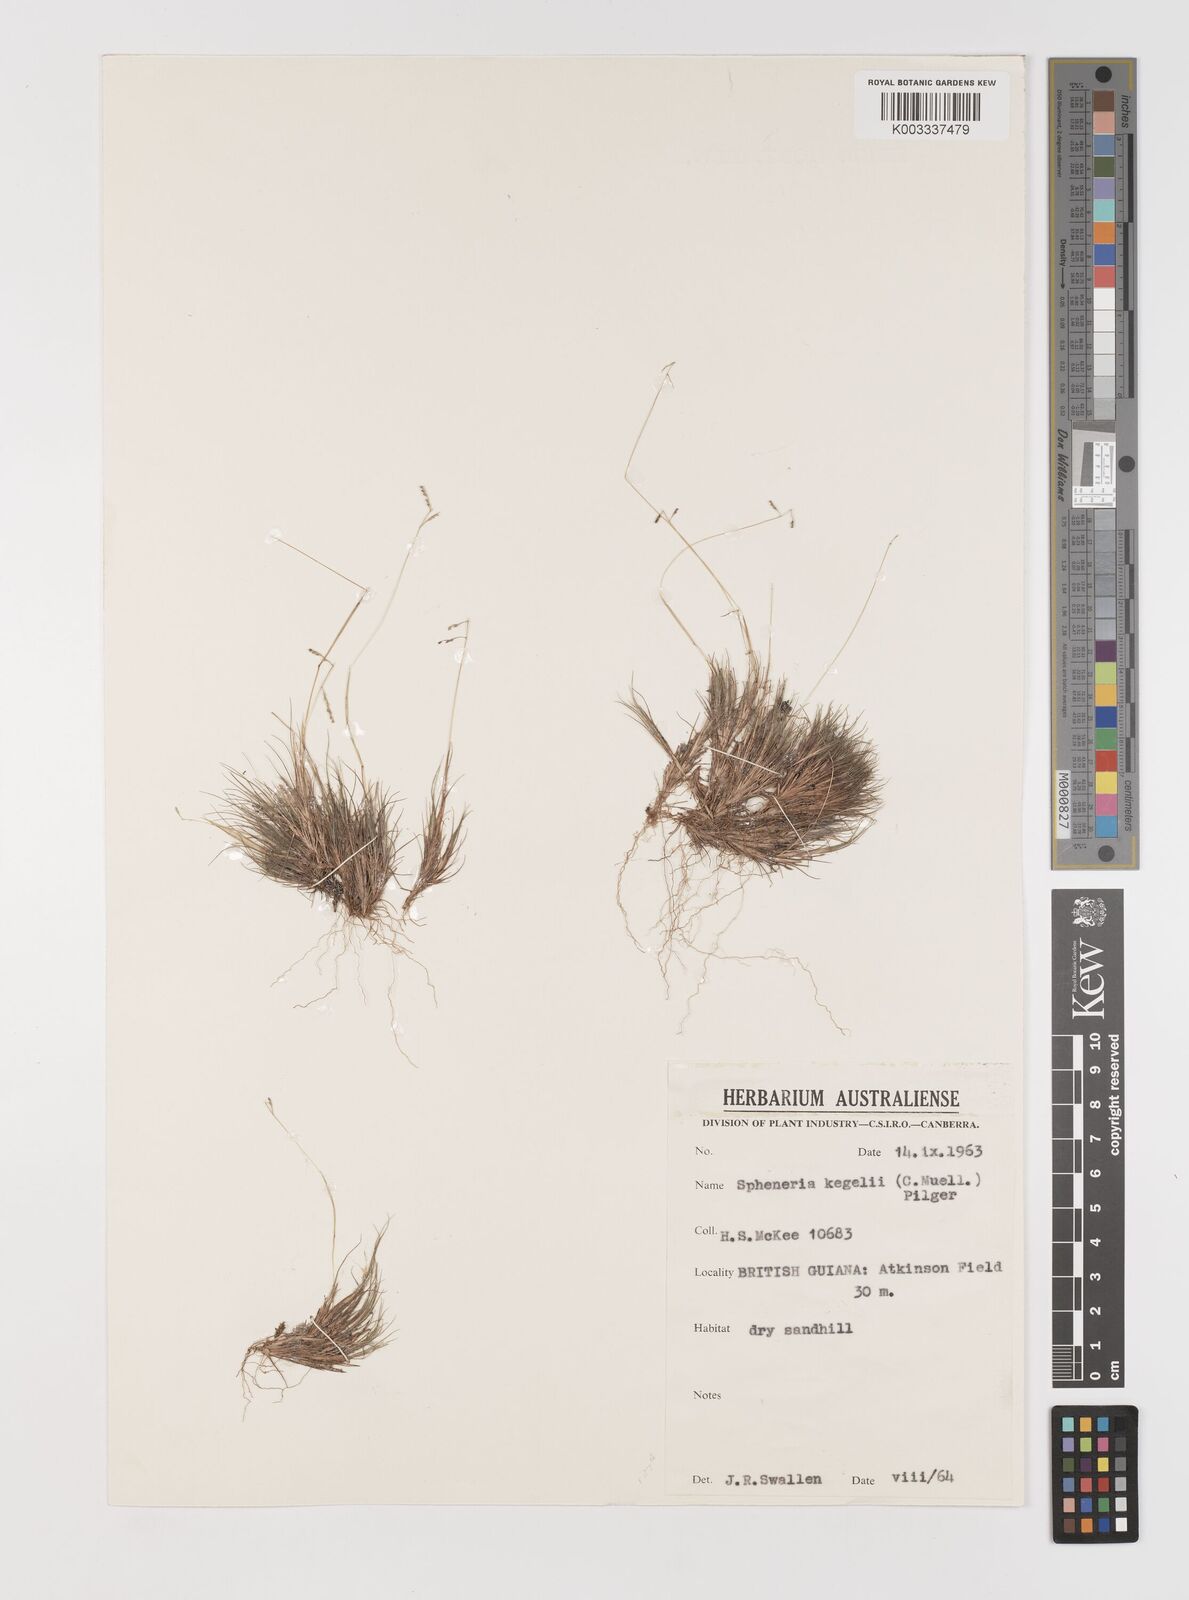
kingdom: Plantae
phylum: Tracheophyta
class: Liliopsida
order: Poales
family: Poaceae
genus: Spheneria
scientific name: Spheneria kegelii
